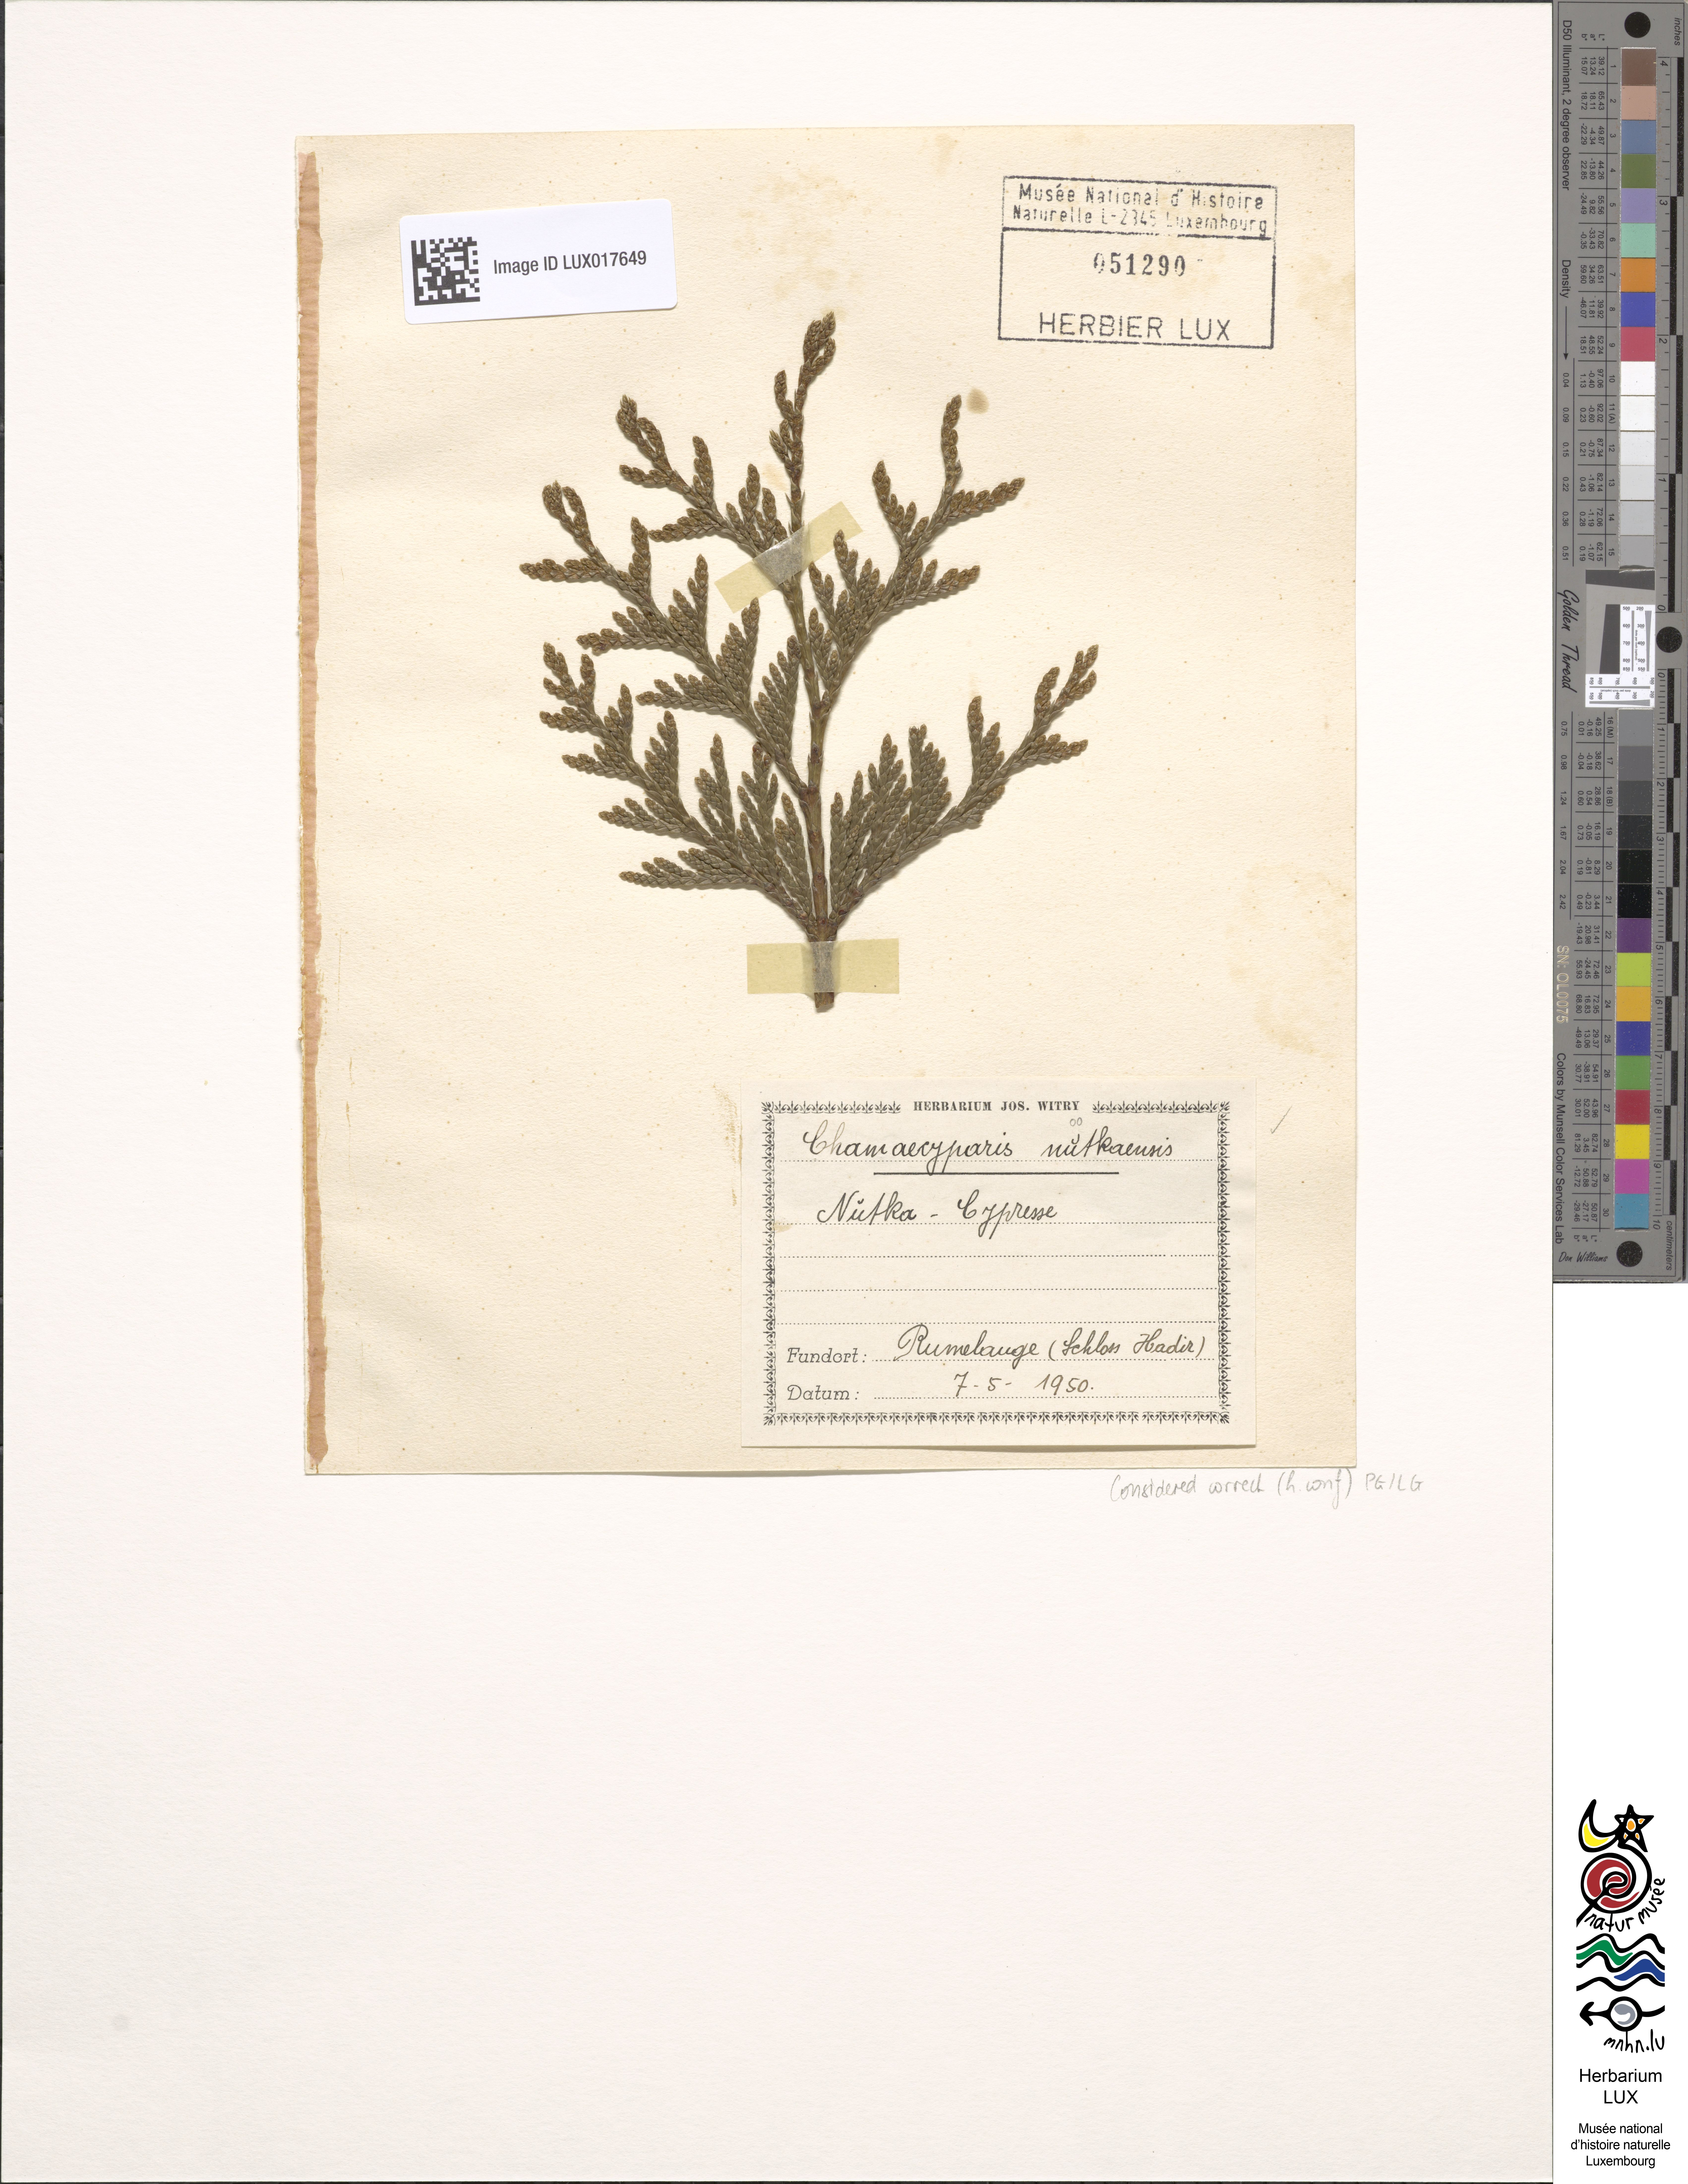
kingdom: Plantae
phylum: Tracheophyta
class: Pinopsida
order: Pinales
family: Cupressaceae
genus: Xanthocyparis
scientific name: Xanthocyparis nootkatensis
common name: Nootka cypress
